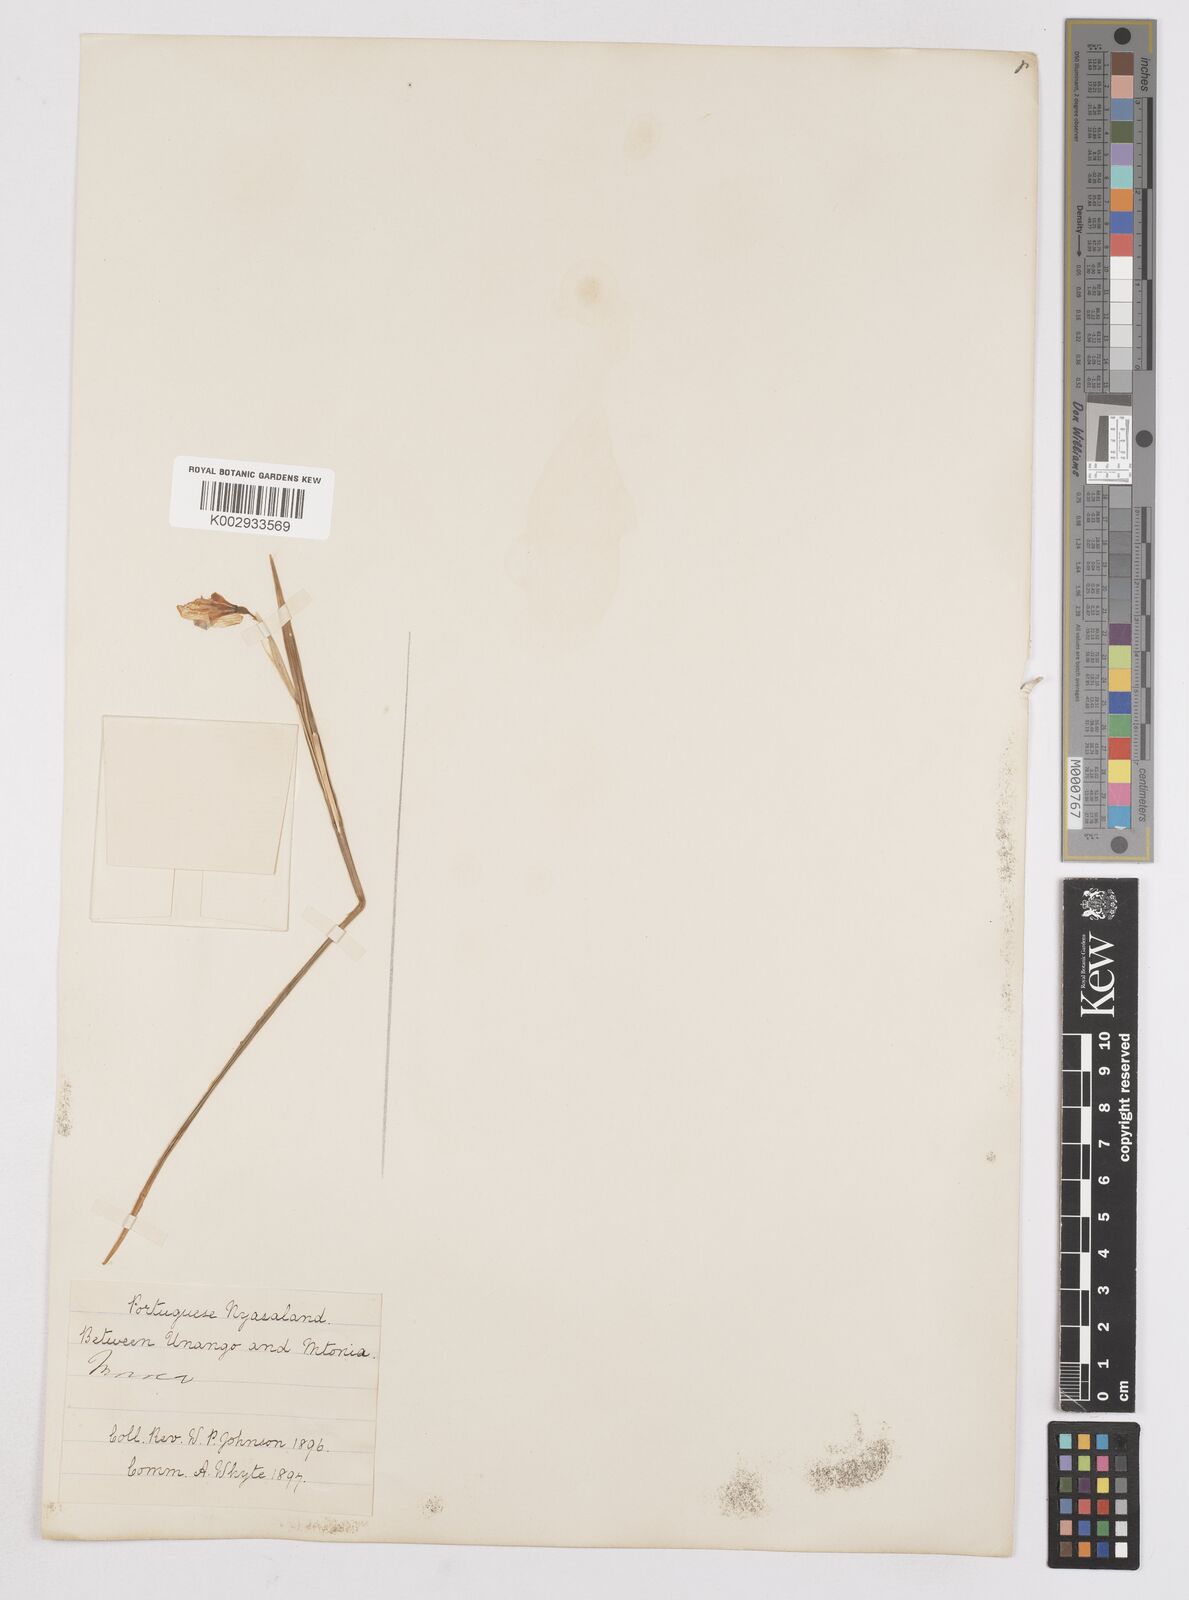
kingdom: Plantae
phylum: Tracheophyta
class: Liliopsida
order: Asparagales
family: Iridaceae
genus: Moraea
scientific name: Moraea carsonii
